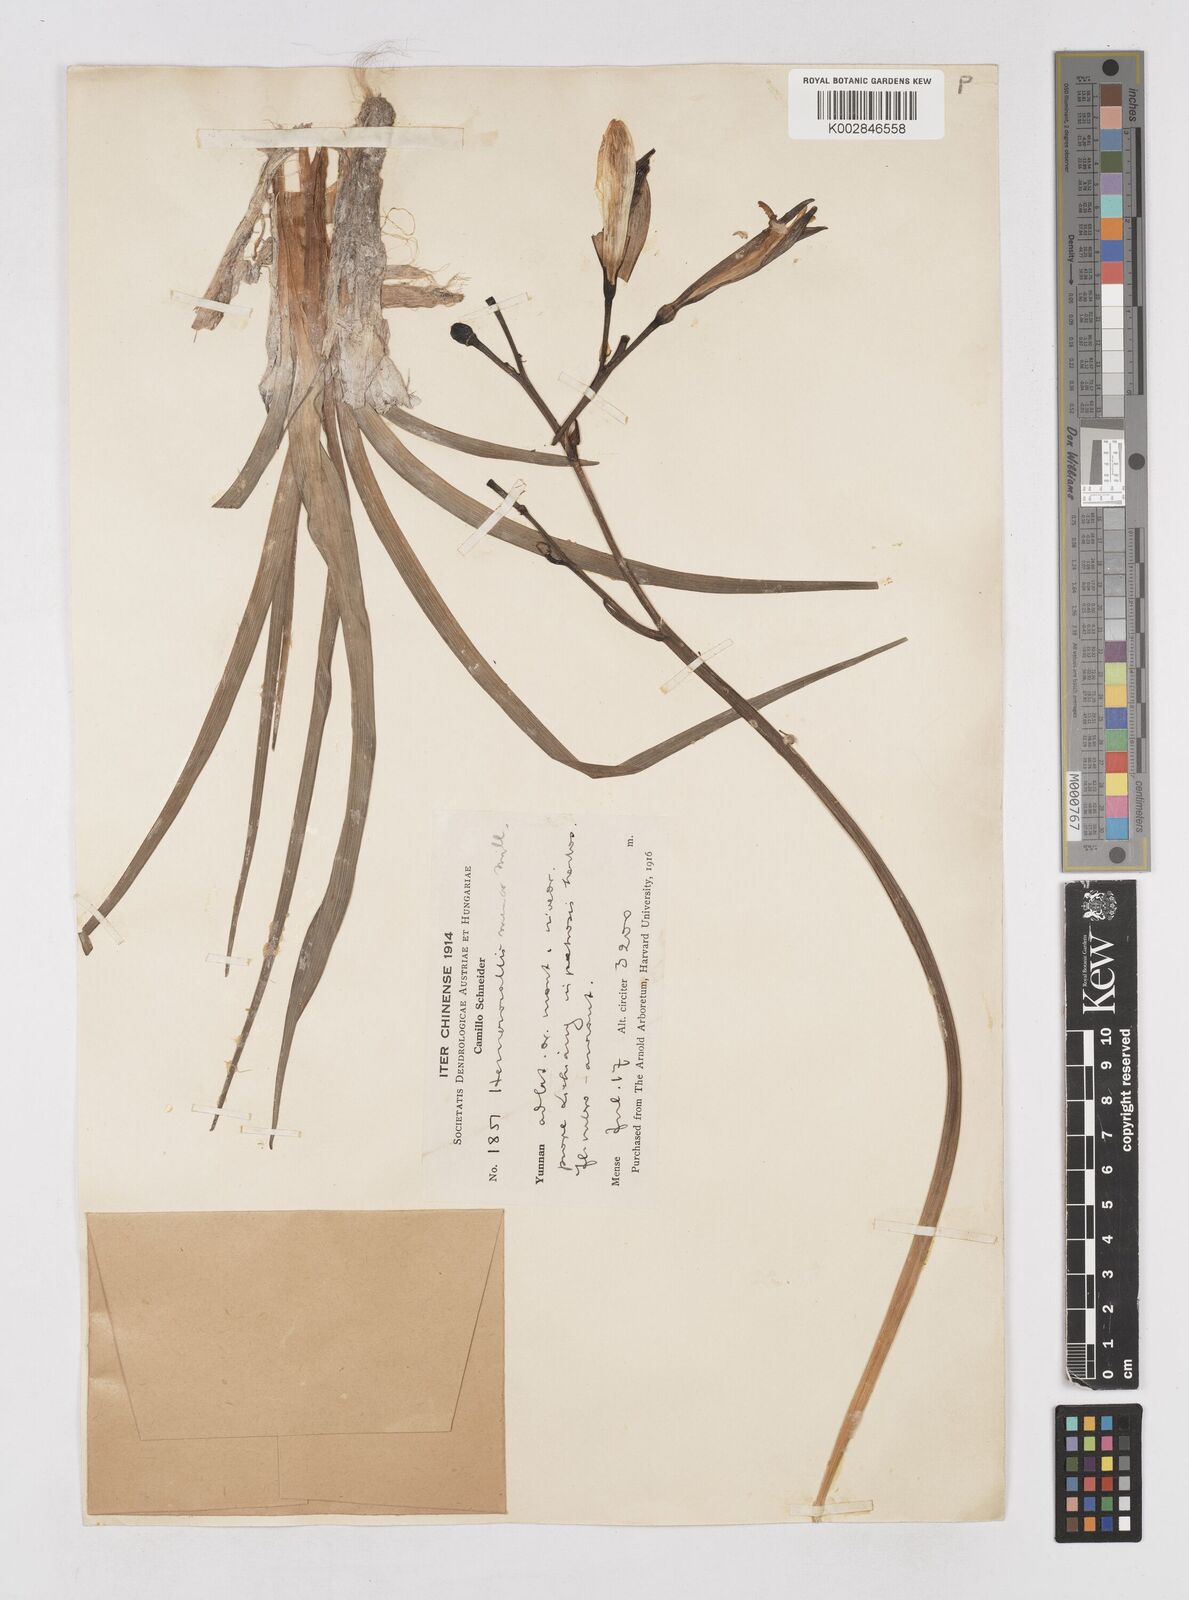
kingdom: Plantae
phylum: Tracheophyta
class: Liliopsida
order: Asparagales
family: Asphodelaceae
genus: Hemerocallis
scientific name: Hemerocallis forrestii
